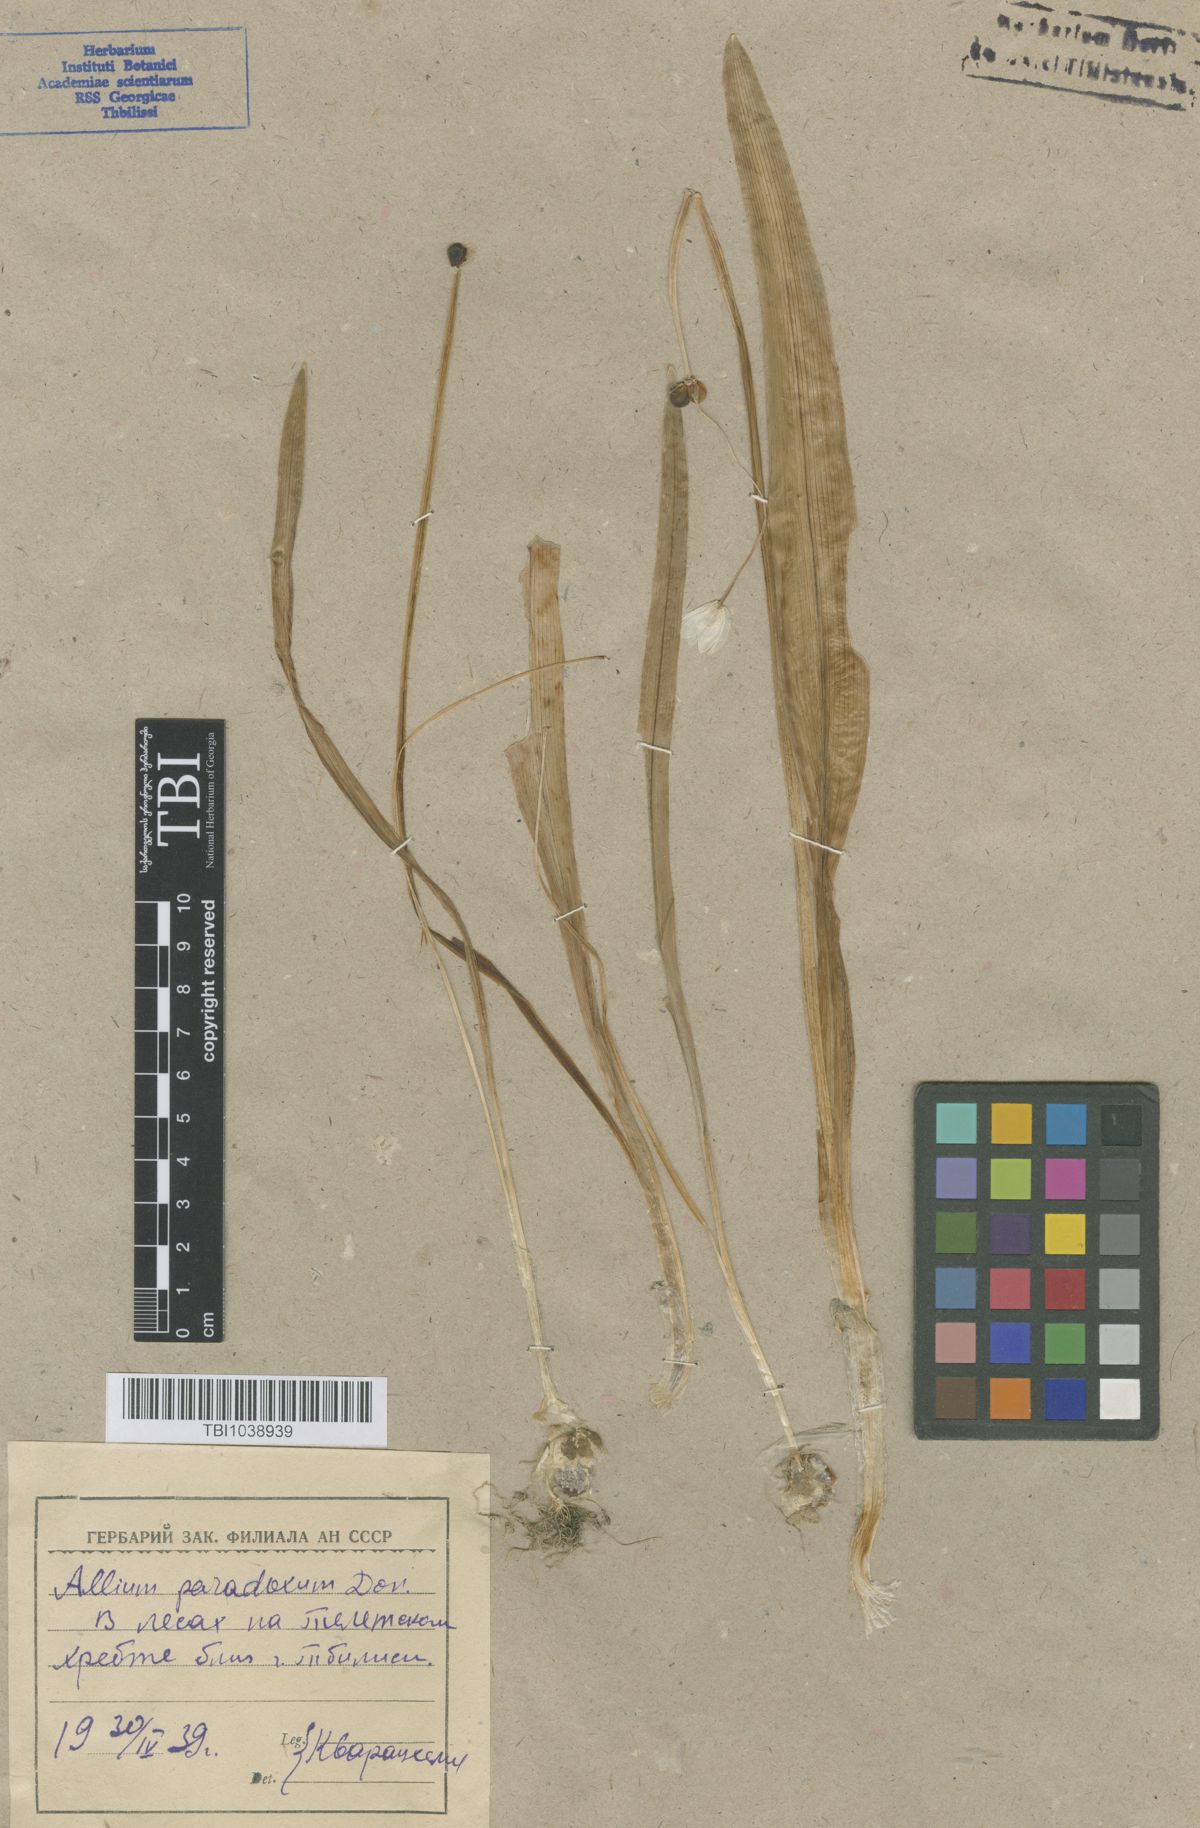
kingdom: Plantae
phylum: Tracheophyta
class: Liliopsida
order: Asparagales
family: Amaryllidaceae
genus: Allium
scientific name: Allium paradoxum
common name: Few-flowered garlic
